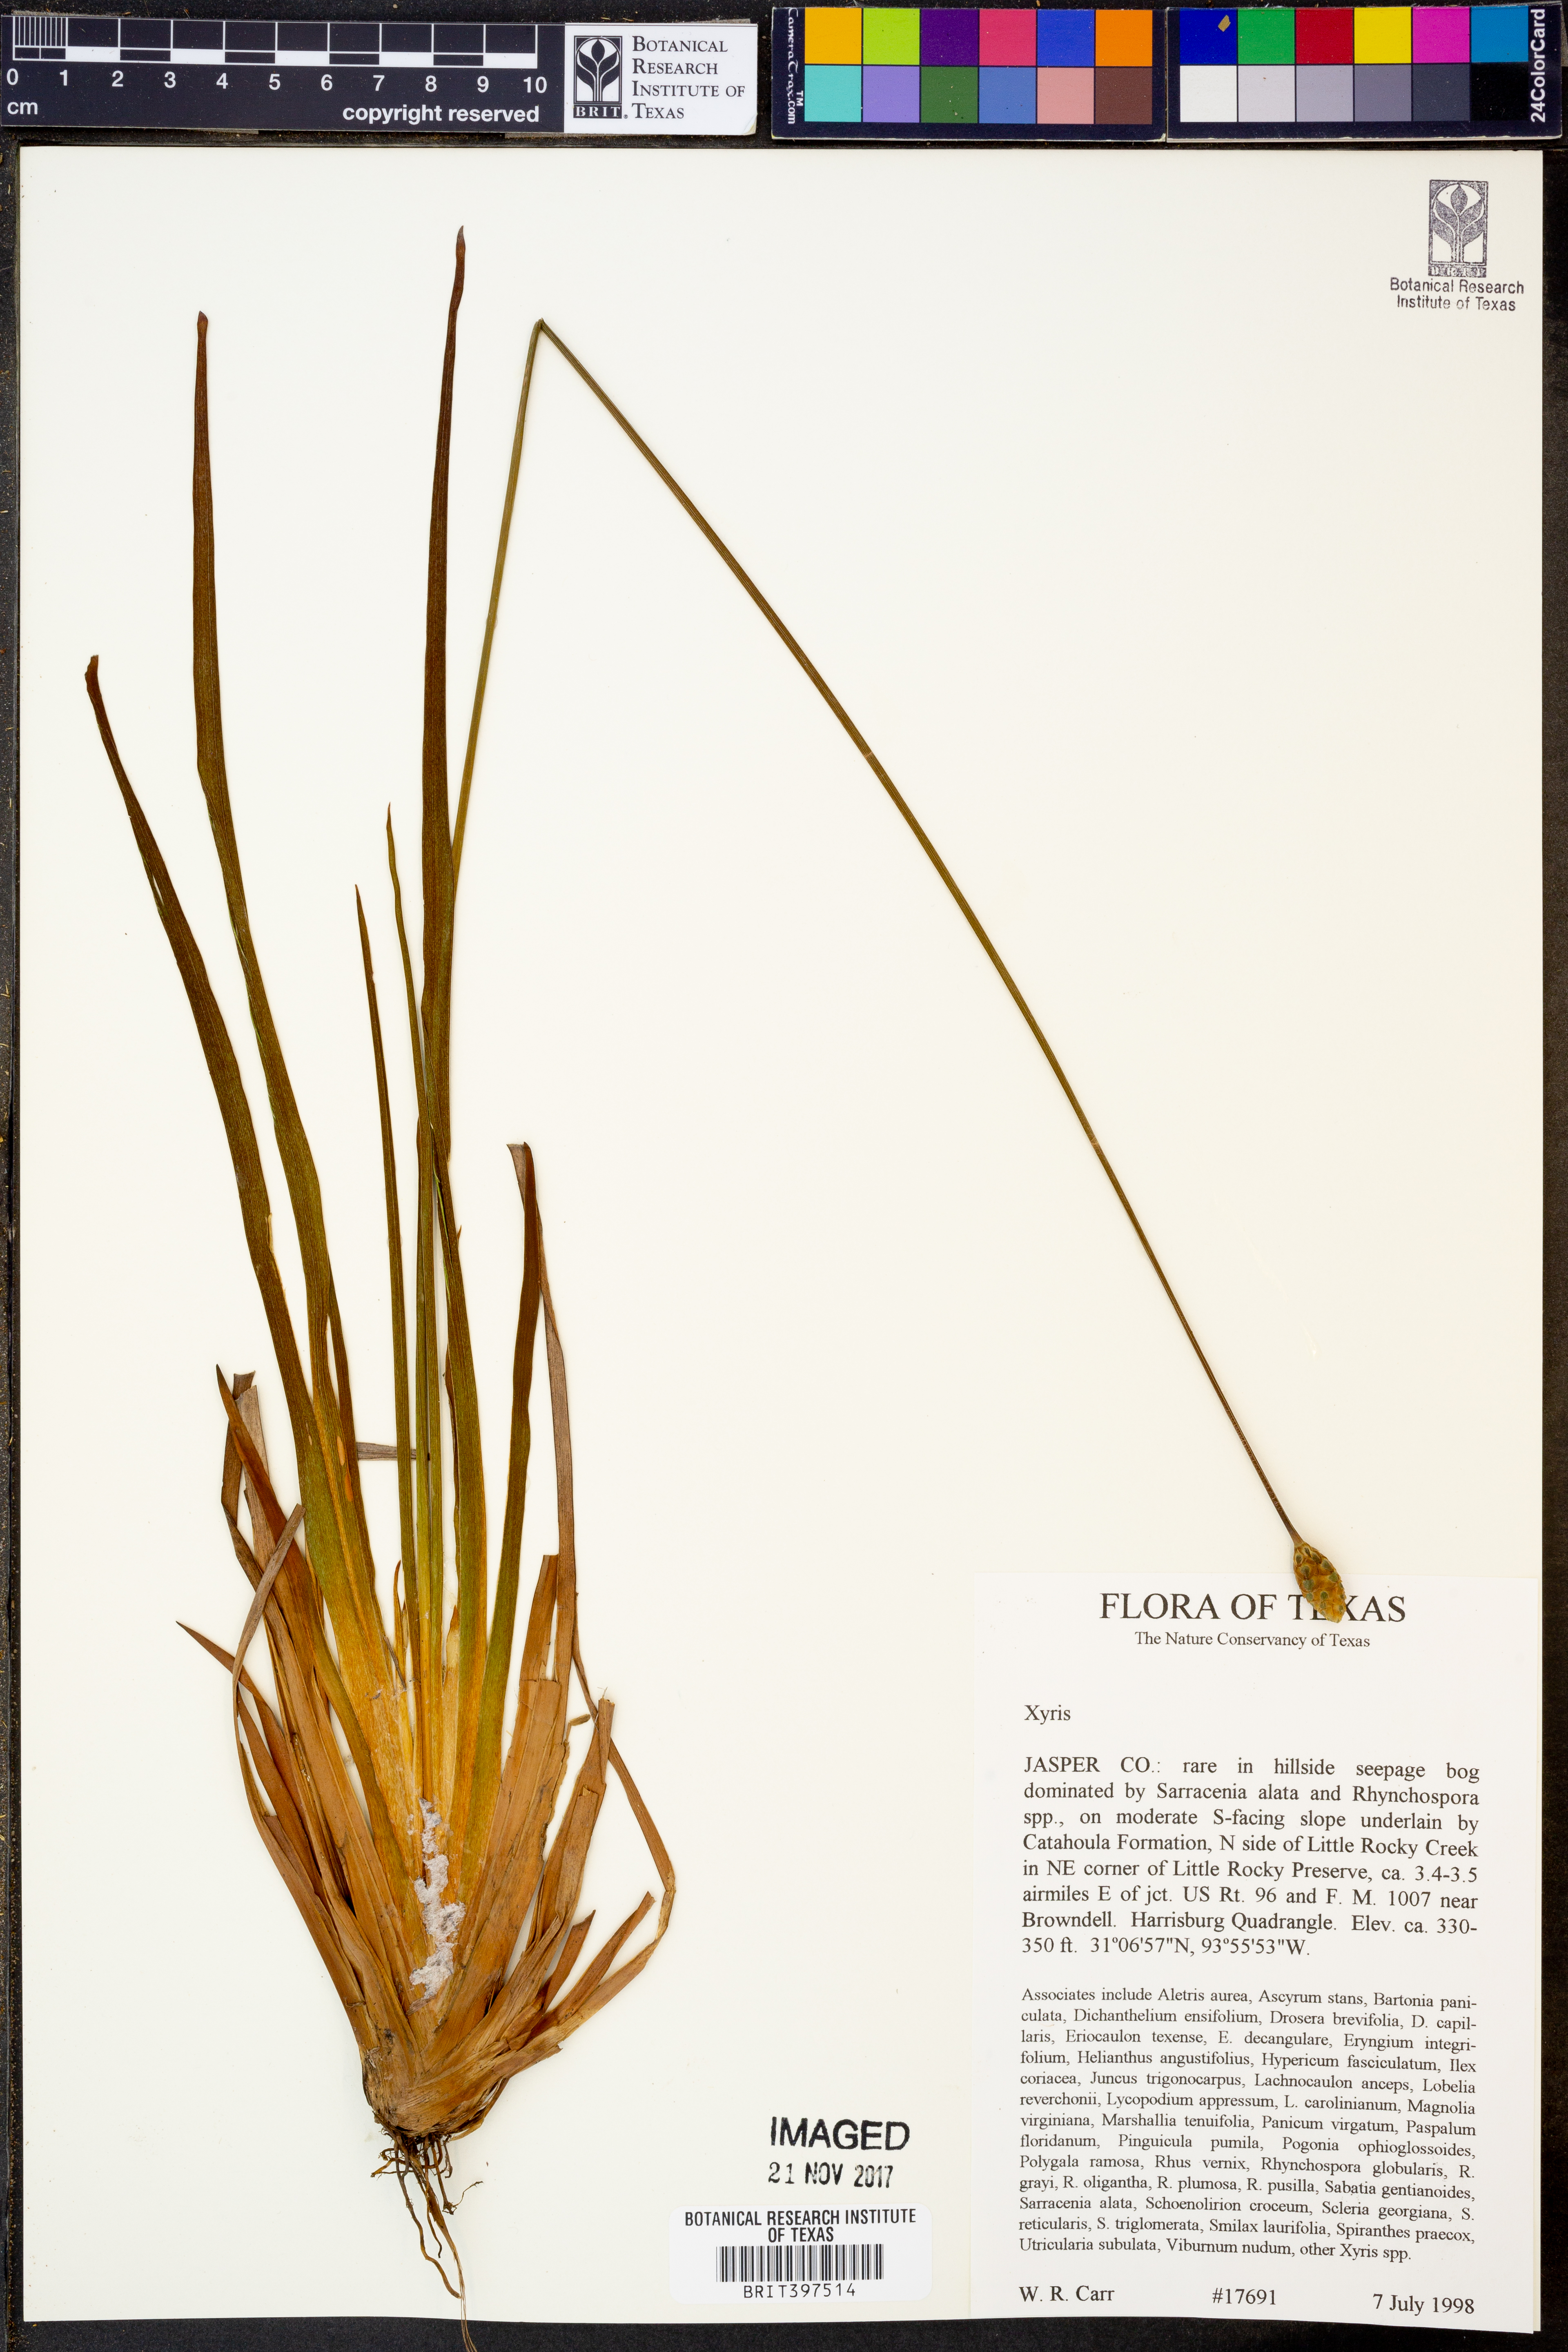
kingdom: Plantae
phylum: Tracheophyta
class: Liliopsida
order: Poales
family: Xyridaceae
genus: Xyris
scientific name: Xyris
